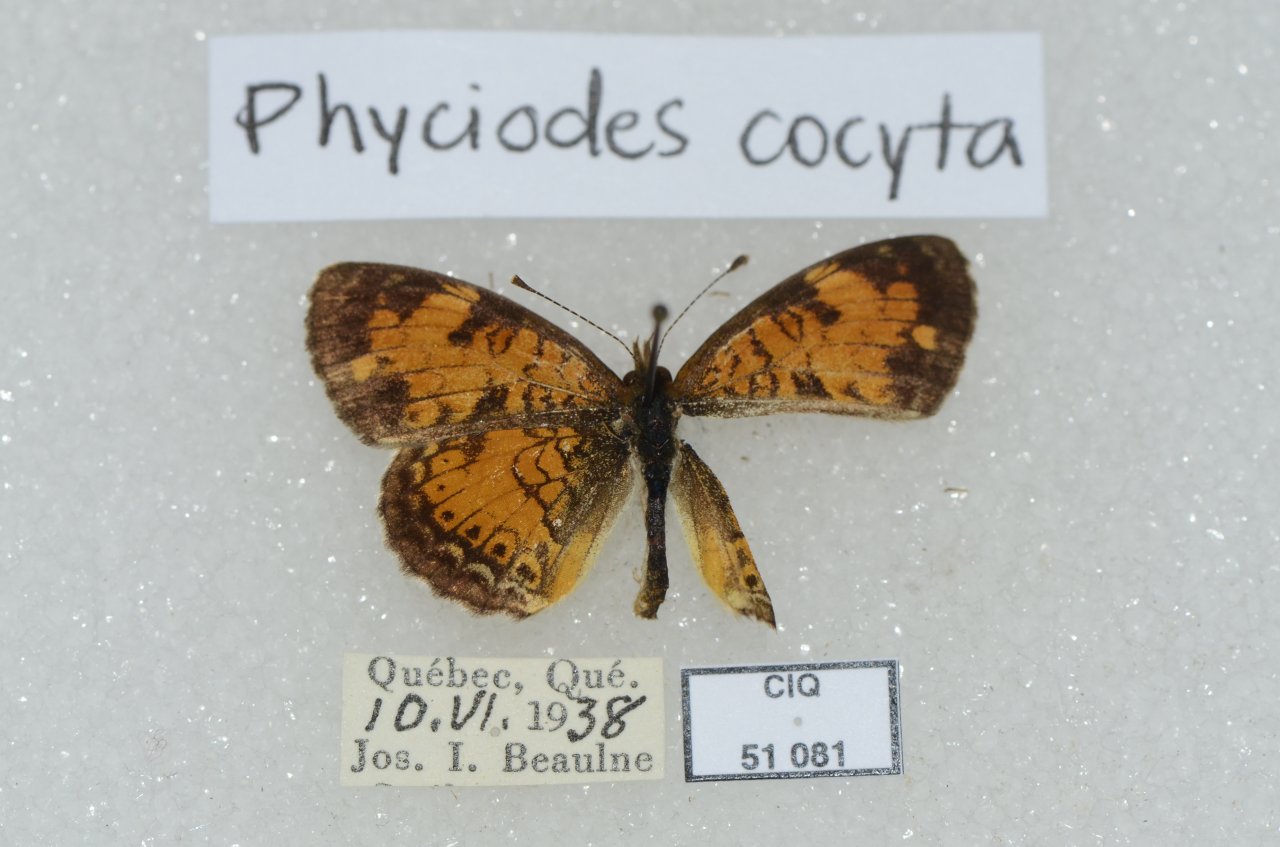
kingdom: Animalia
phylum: Arthropoda
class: Insecta
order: Lepidoptera
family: Nymphalidae
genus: Phyciodes
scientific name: Phyciodes tharos
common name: Northern Crescent
